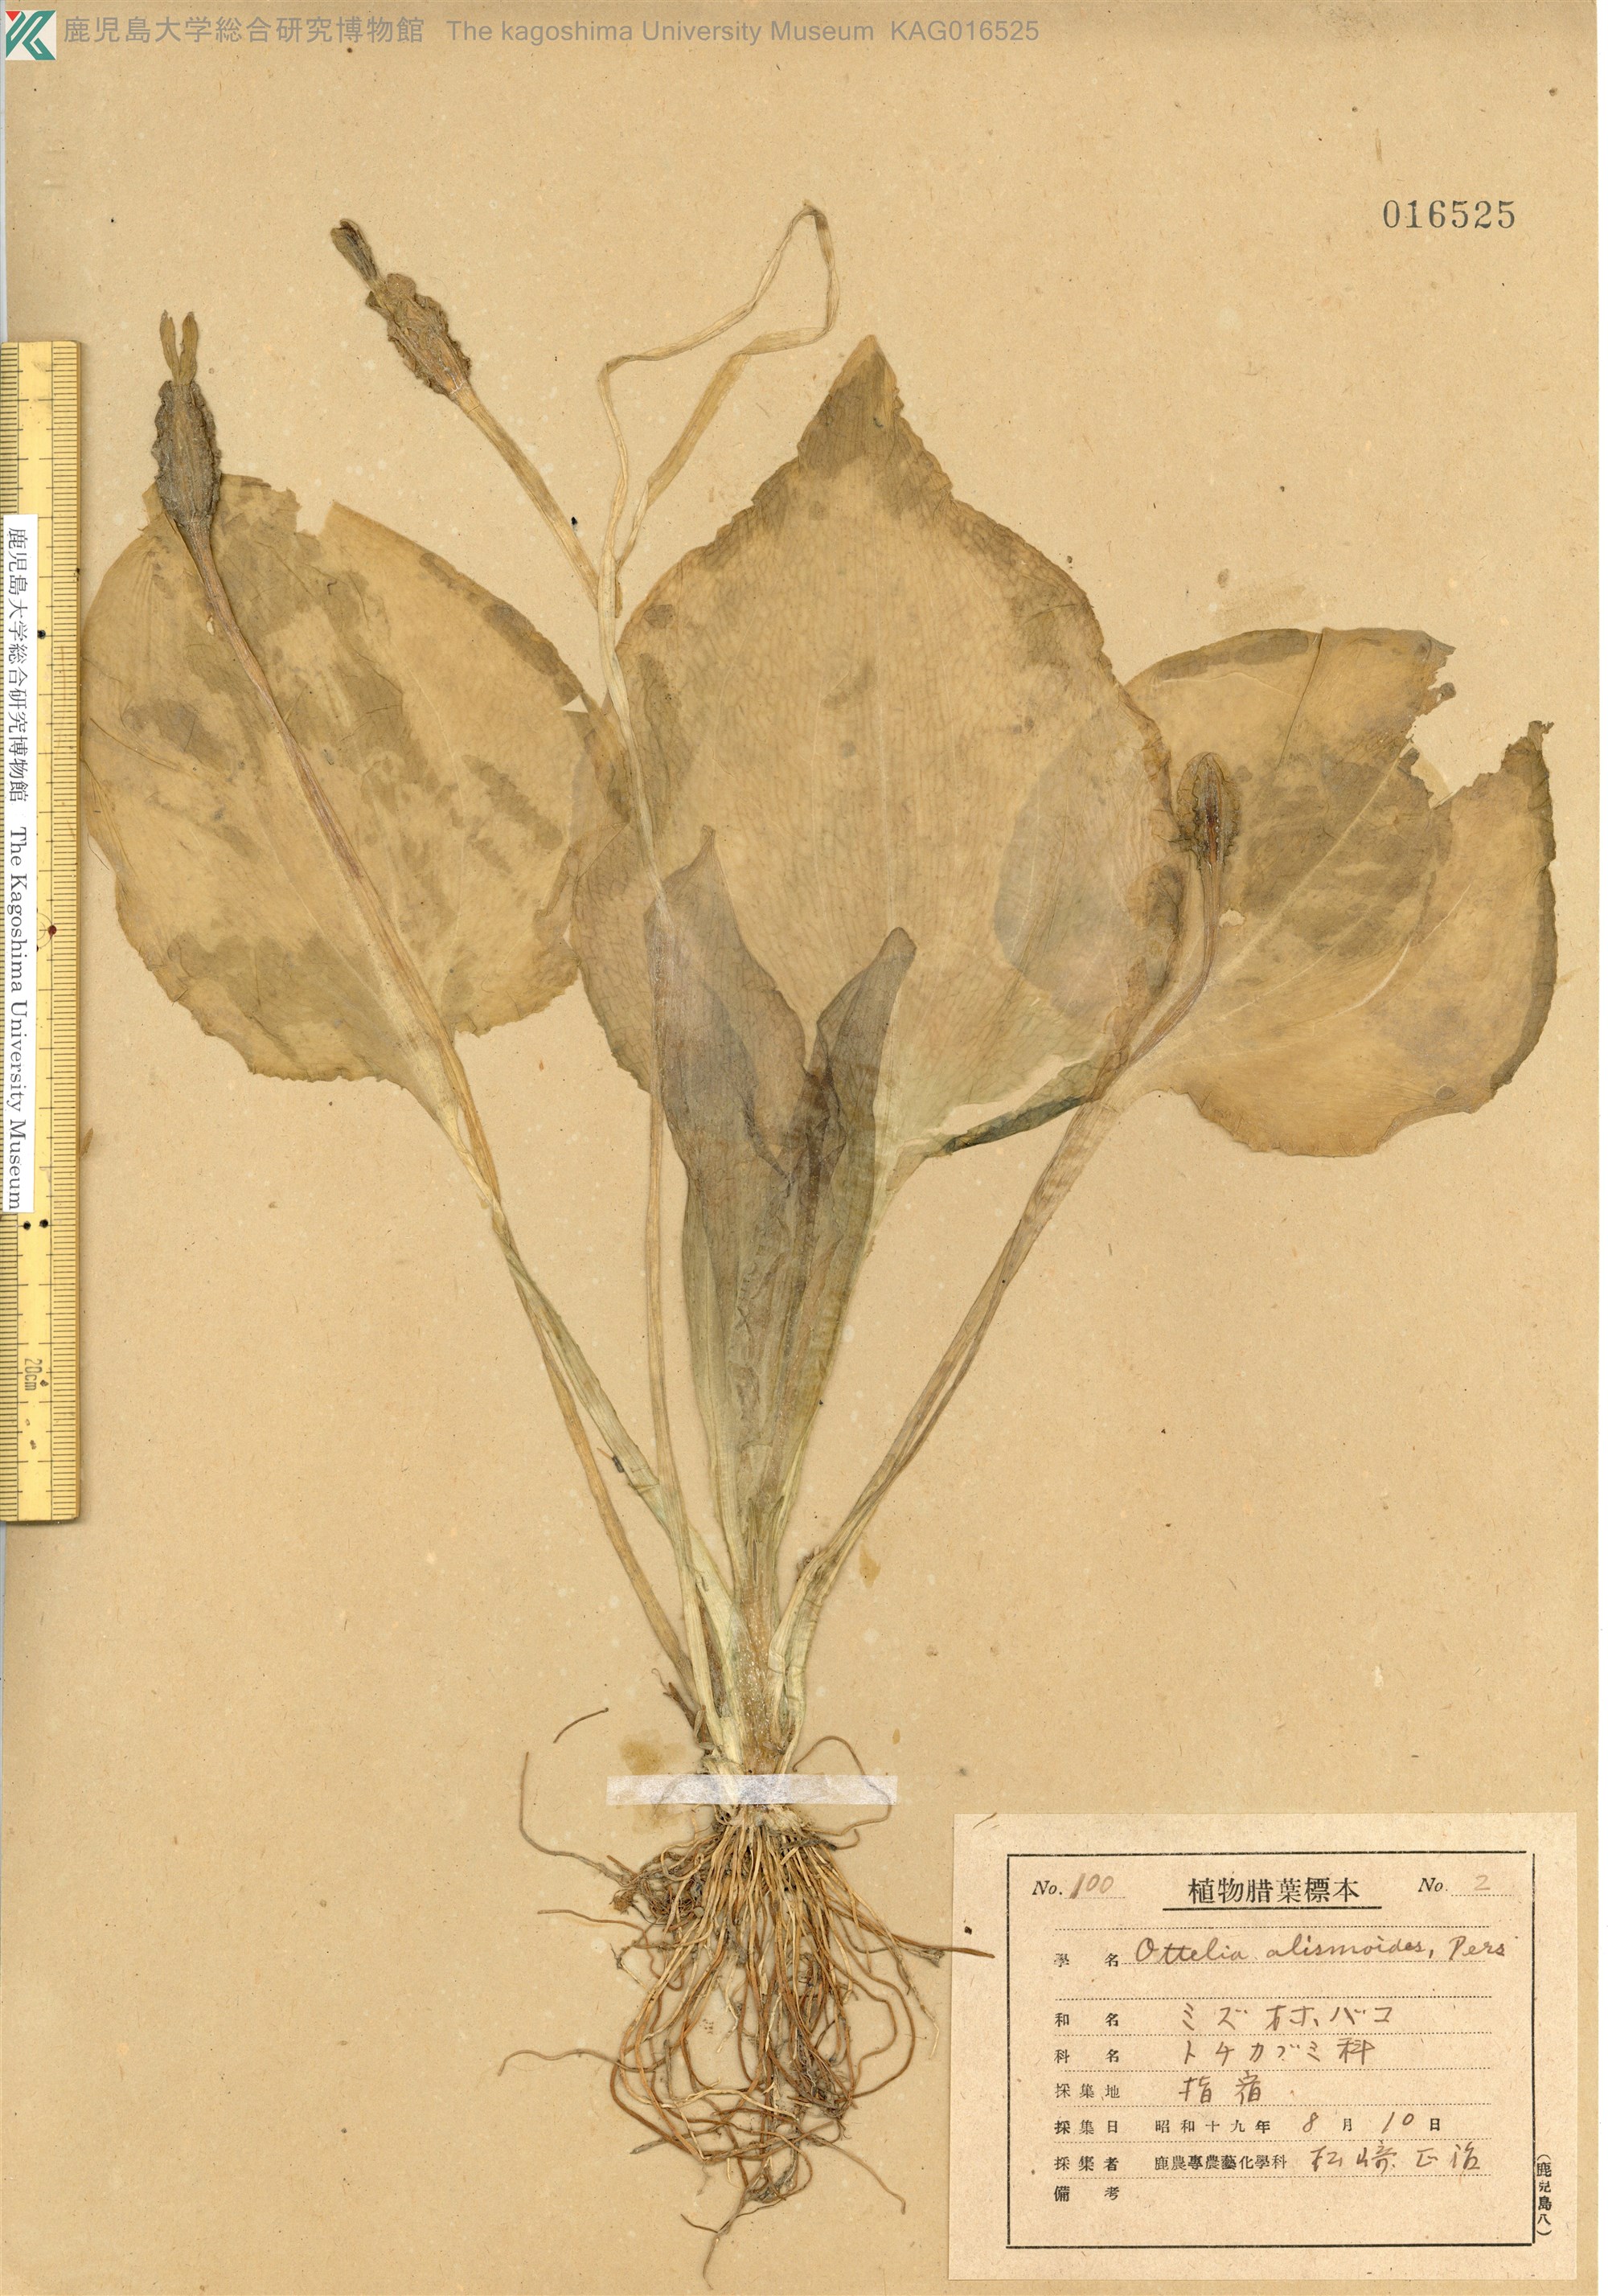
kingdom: Plantae
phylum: Tracheophyta
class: Liliopsida
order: Alismatales
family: Hydrocharitaceae
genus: Ottelia
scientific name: Ottelia alismoides
